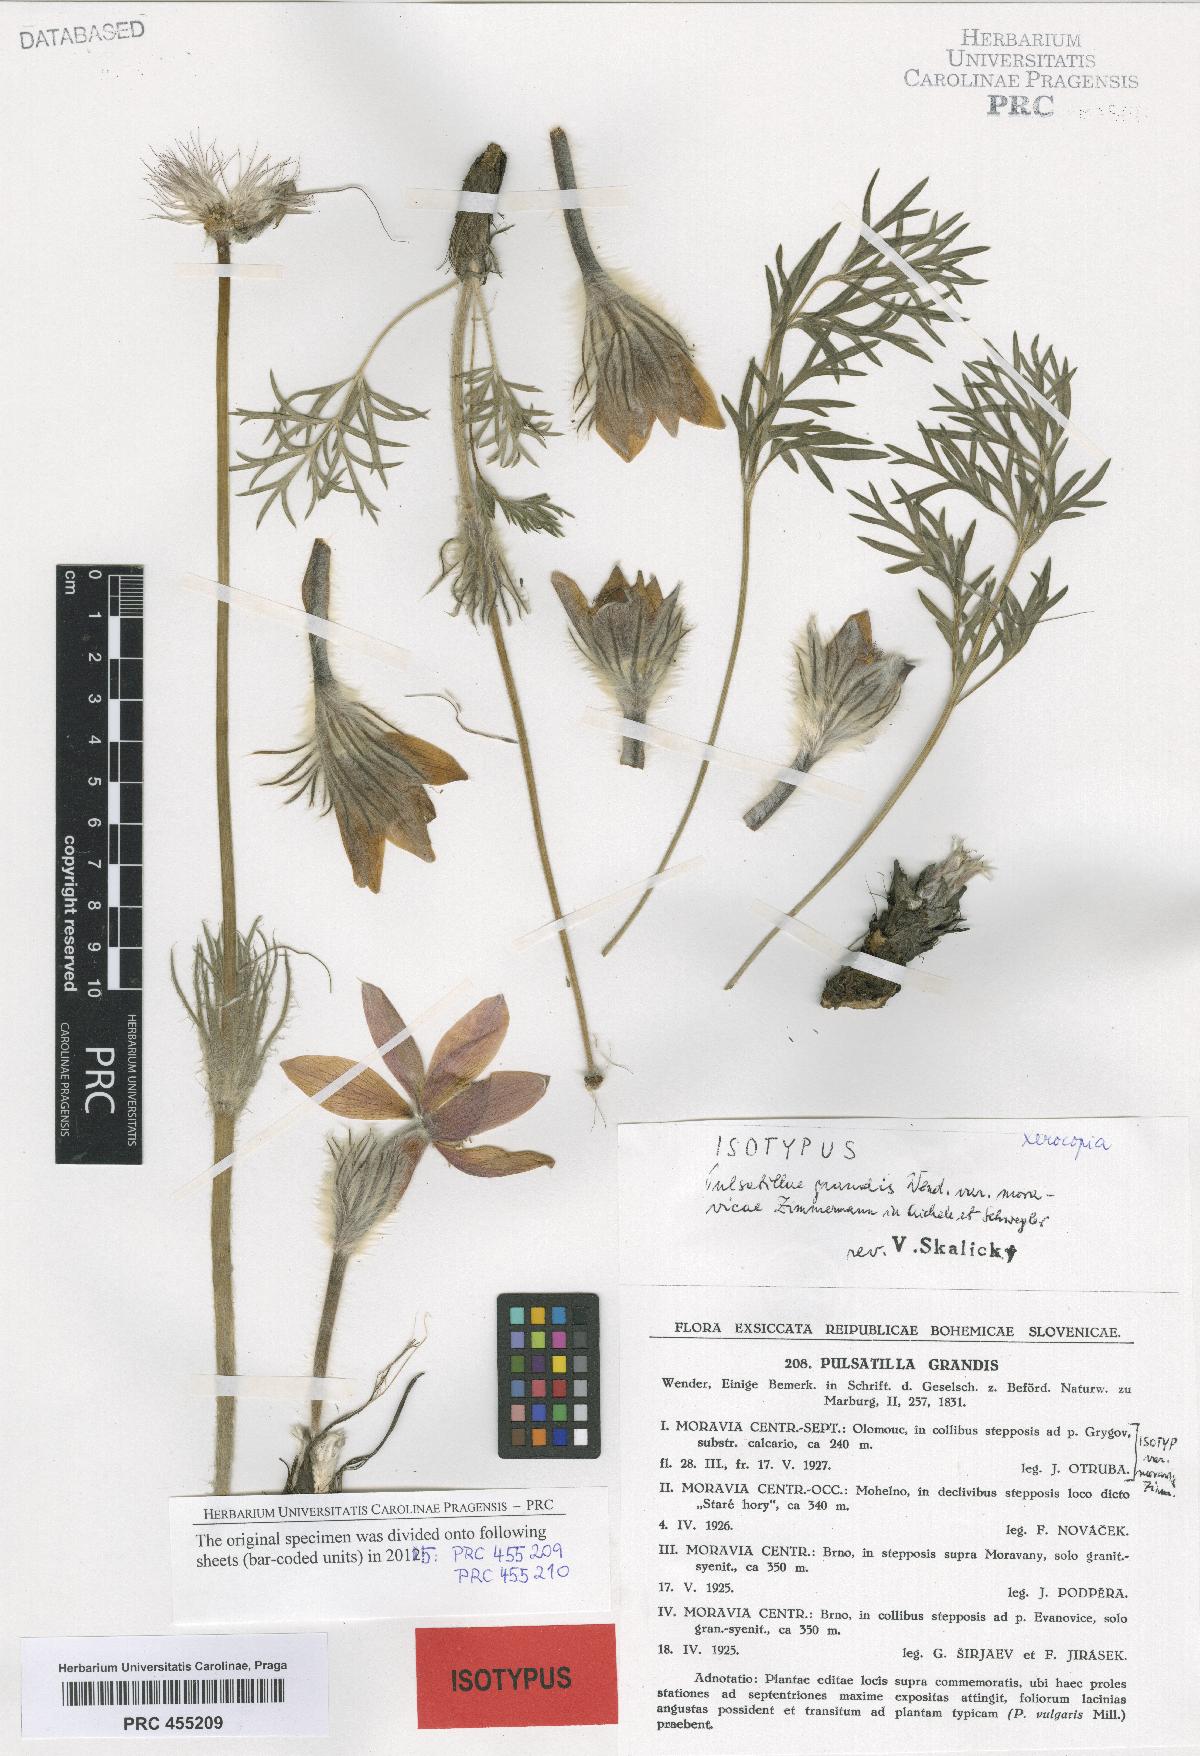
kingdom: Plantae
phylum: Tracheophyta
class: Magnoliopsida
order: Ranunculales
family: Ranunculaceae
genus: Pulsatilla
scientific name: Pulsatilla grandis
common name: Greater pasque flower
